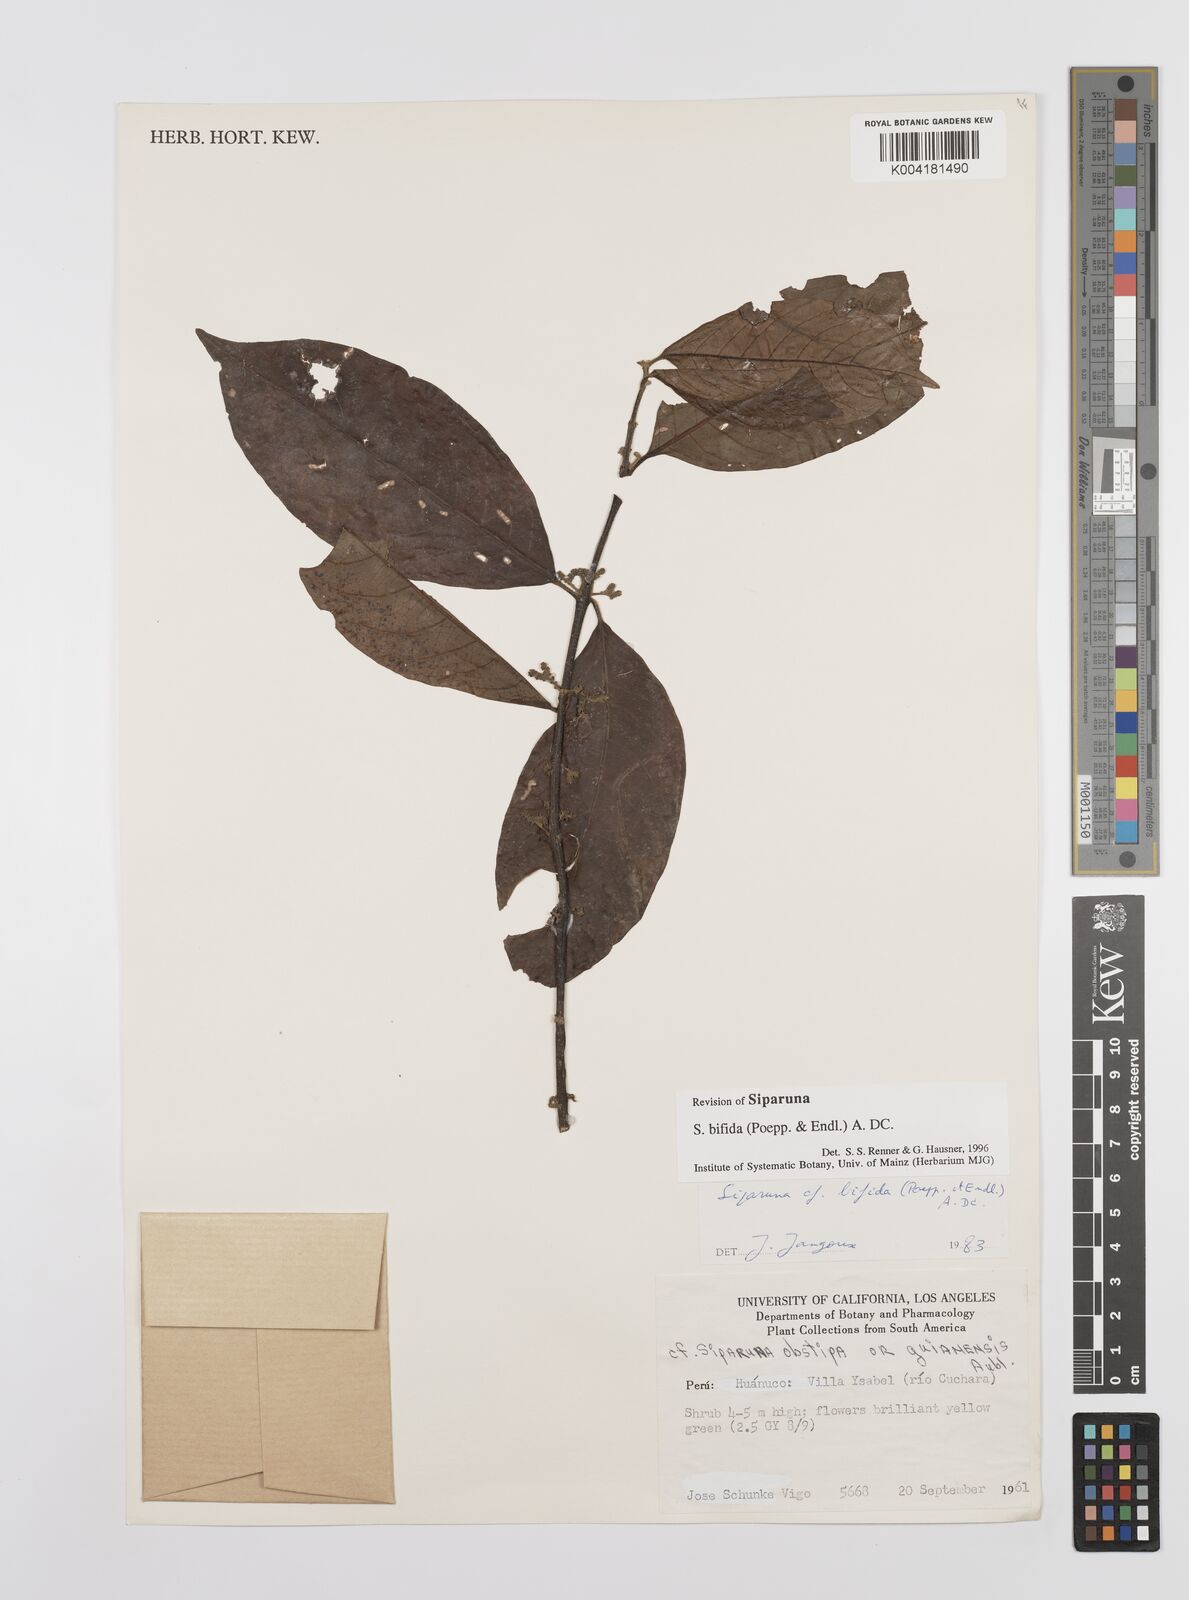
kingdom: Plantae
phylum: Tracheophyta
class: Magnoliopsida
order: Laurales
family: Siparunaceae
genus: Siparuna
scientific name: Siparuna bifida
